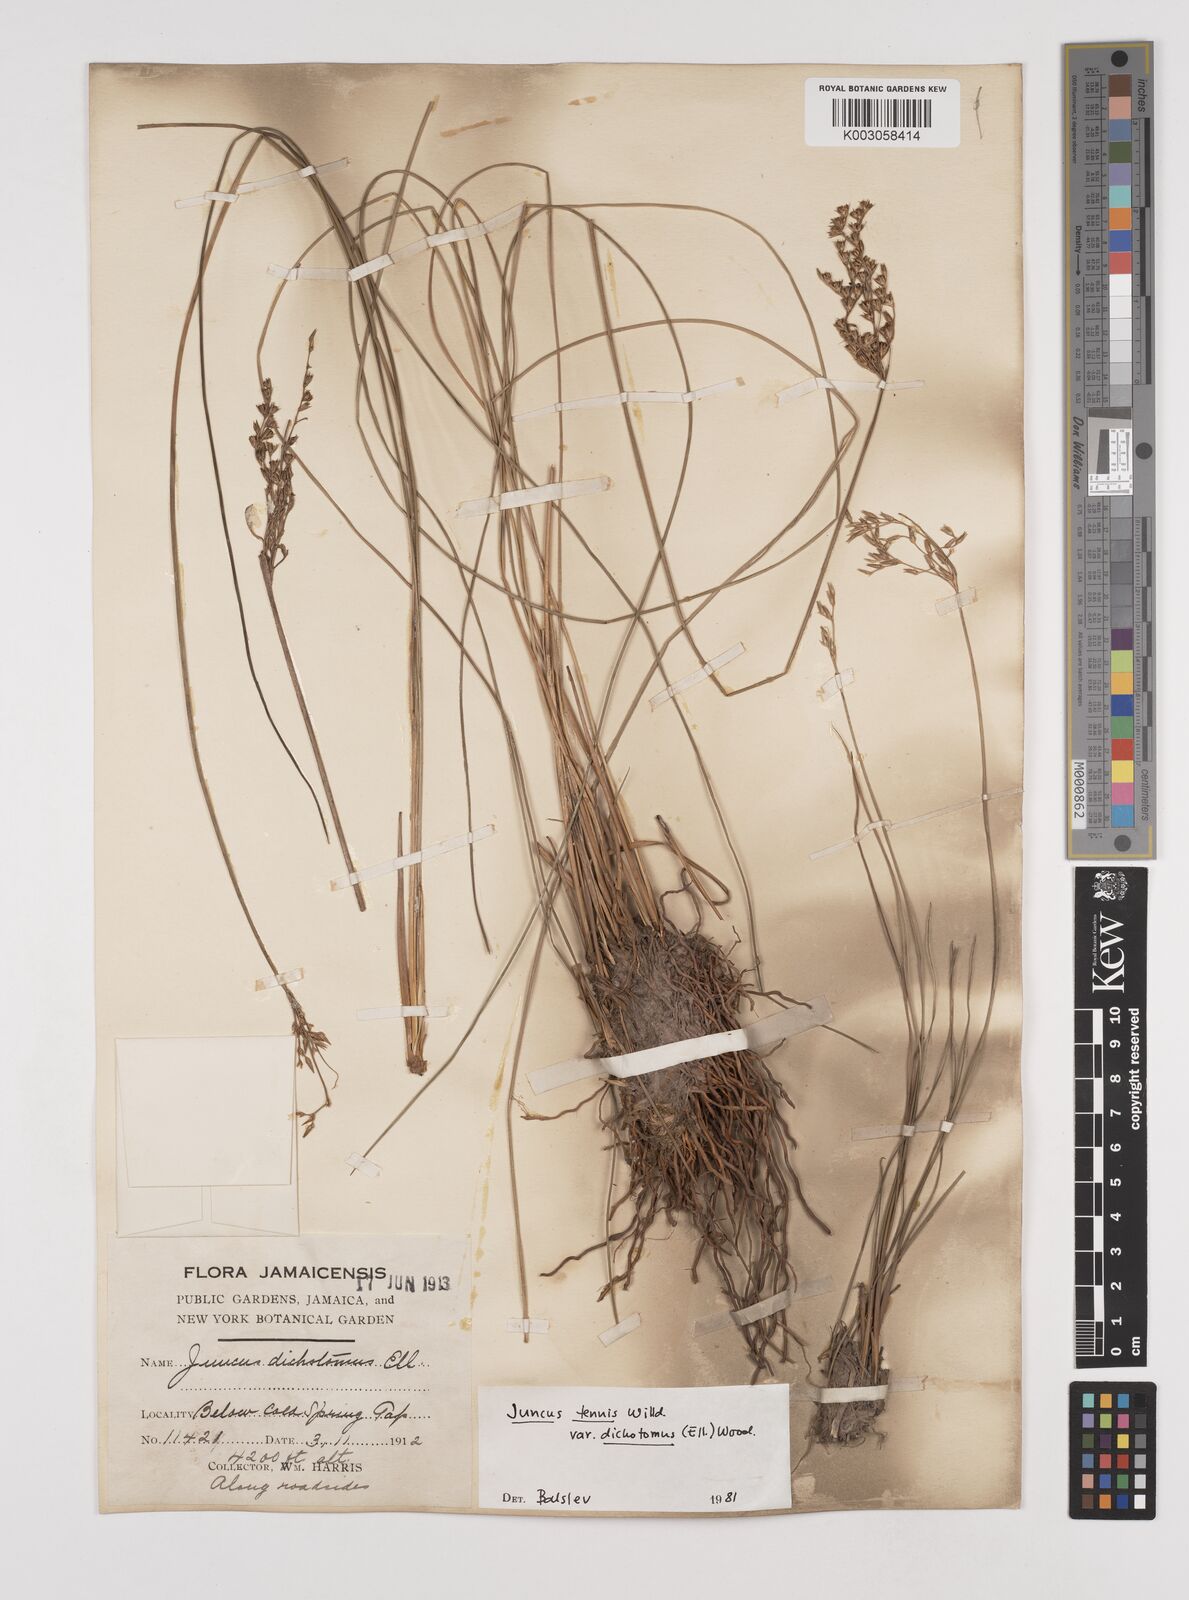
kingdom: Plantae
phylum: Tracheophyta
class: Liliopsida
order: Poales
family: Juncaceae
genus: Juncus
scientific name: Juncus dichotomus
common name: Forked rush
